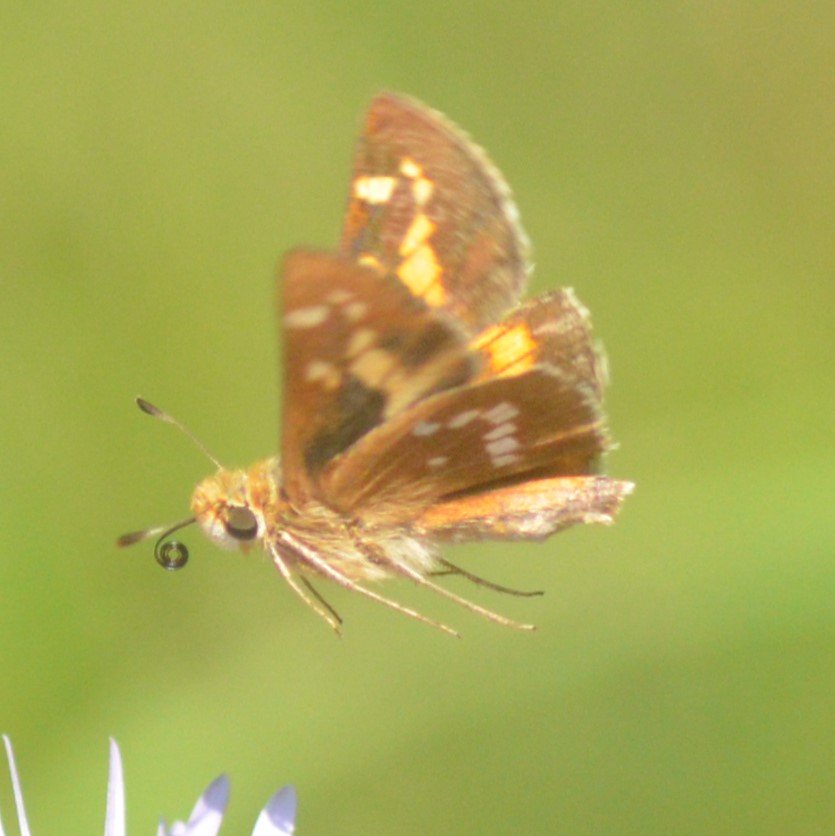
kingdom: Animalia
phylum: Arthropoda
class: Insecta
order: Lepidoptera
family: Hesperiidae
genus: Hesperia
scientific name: Hesperia leonardus
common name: Leonard's Skipper
